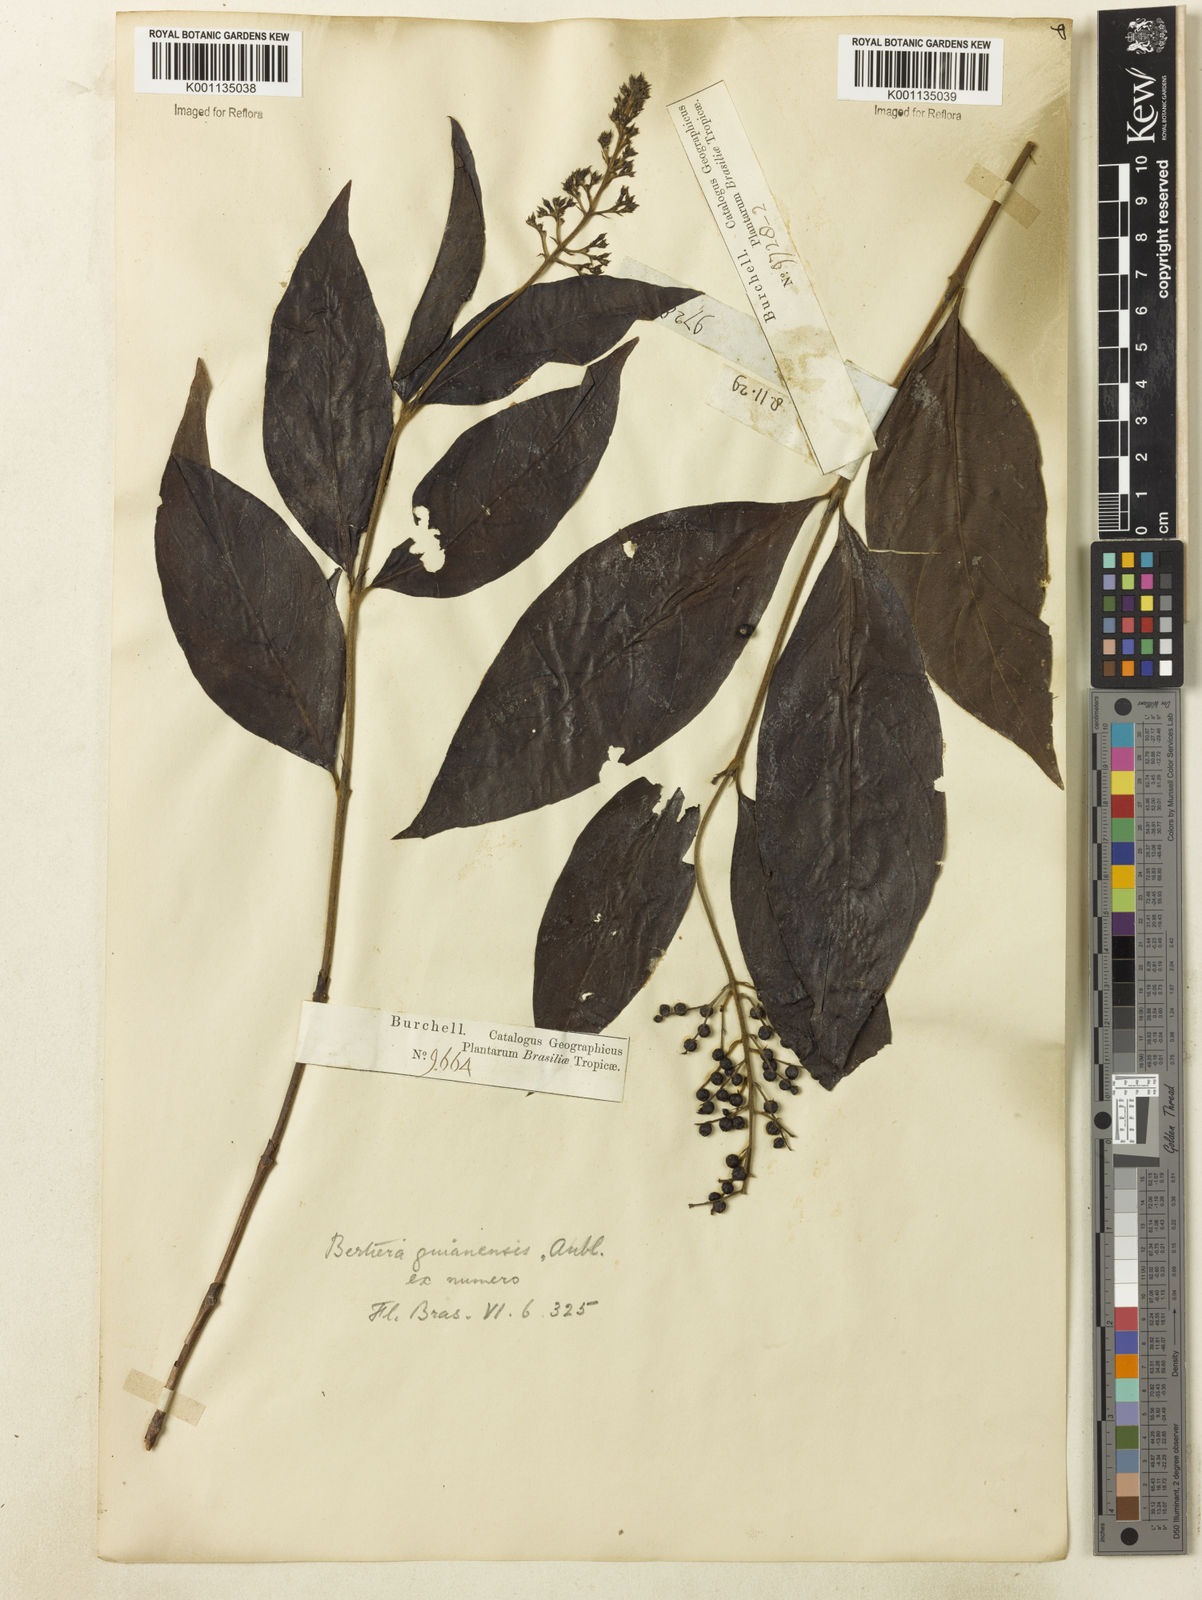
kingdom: Plantae
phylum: Tracheophyta
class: Magnoliopsida
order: Gentianales
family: Rubiaceae
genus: Bertiera
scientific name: Bertiera guianensis
